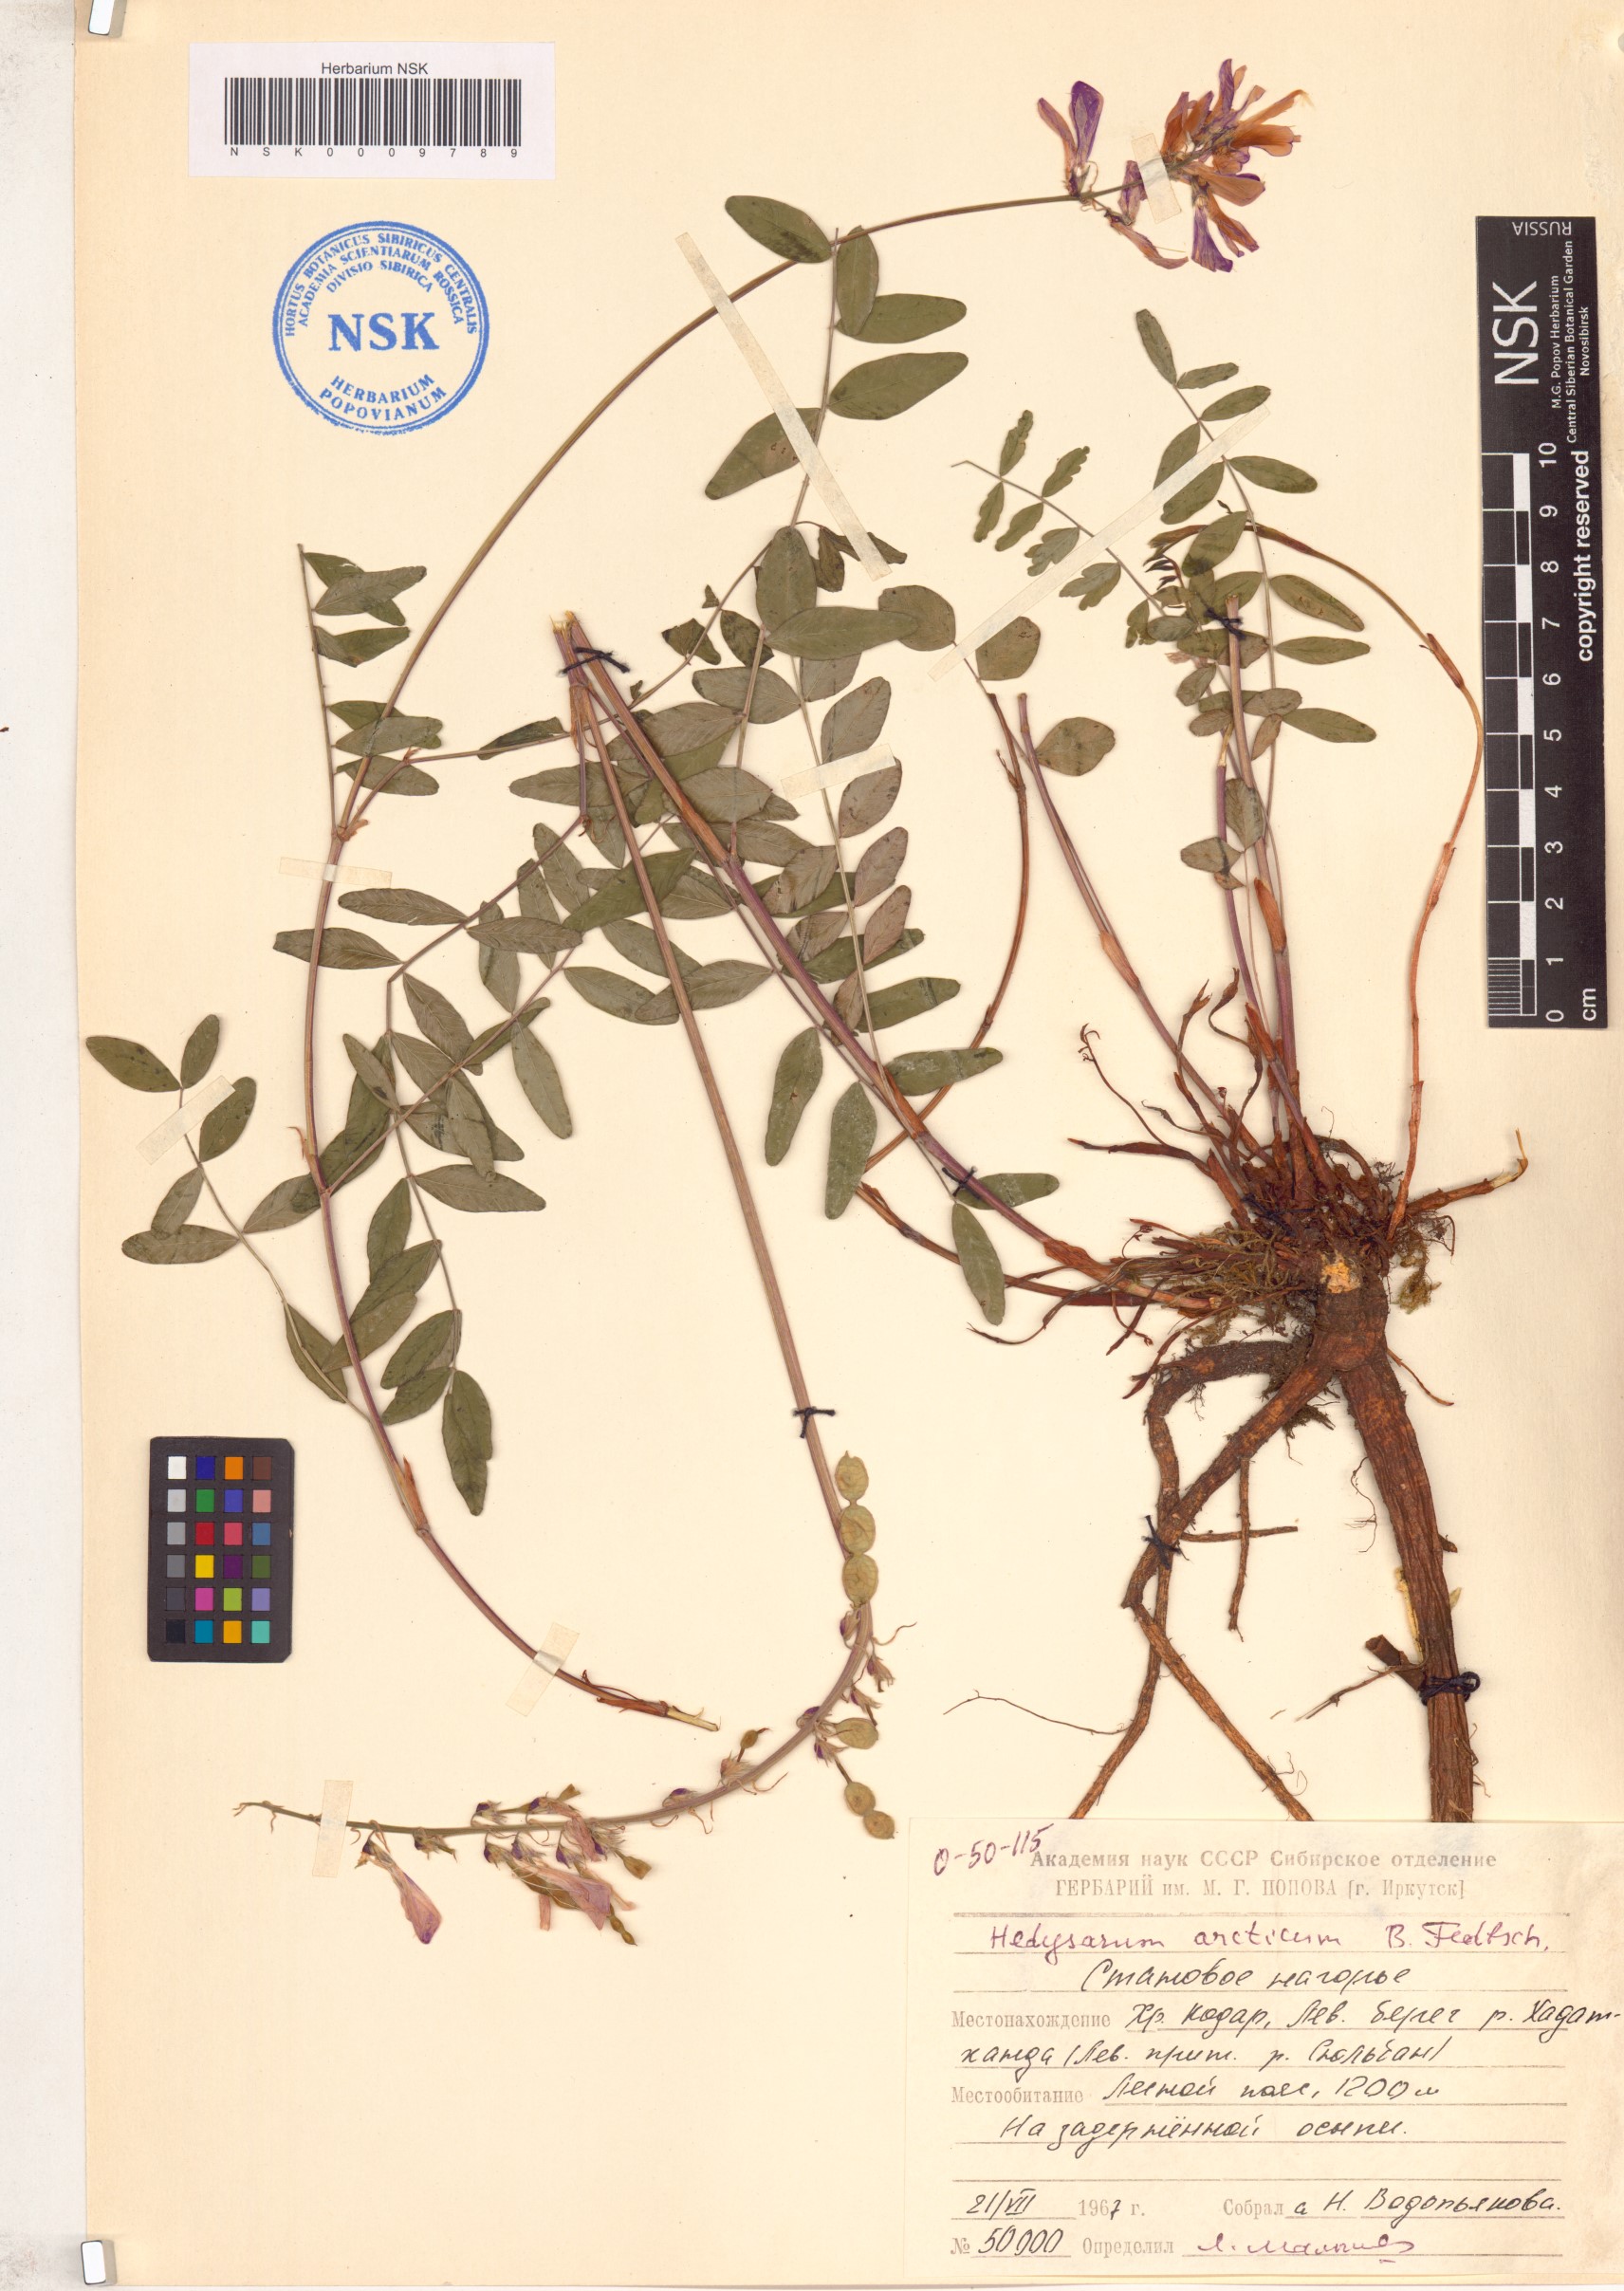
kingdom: Plantae
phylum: Tracheophyta
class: Magnoliopsida
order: Fabales
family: Fabaceae
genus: Hedysarum
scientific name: Hedysarum hedysaroides
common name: Alpine french-honeysuckle
